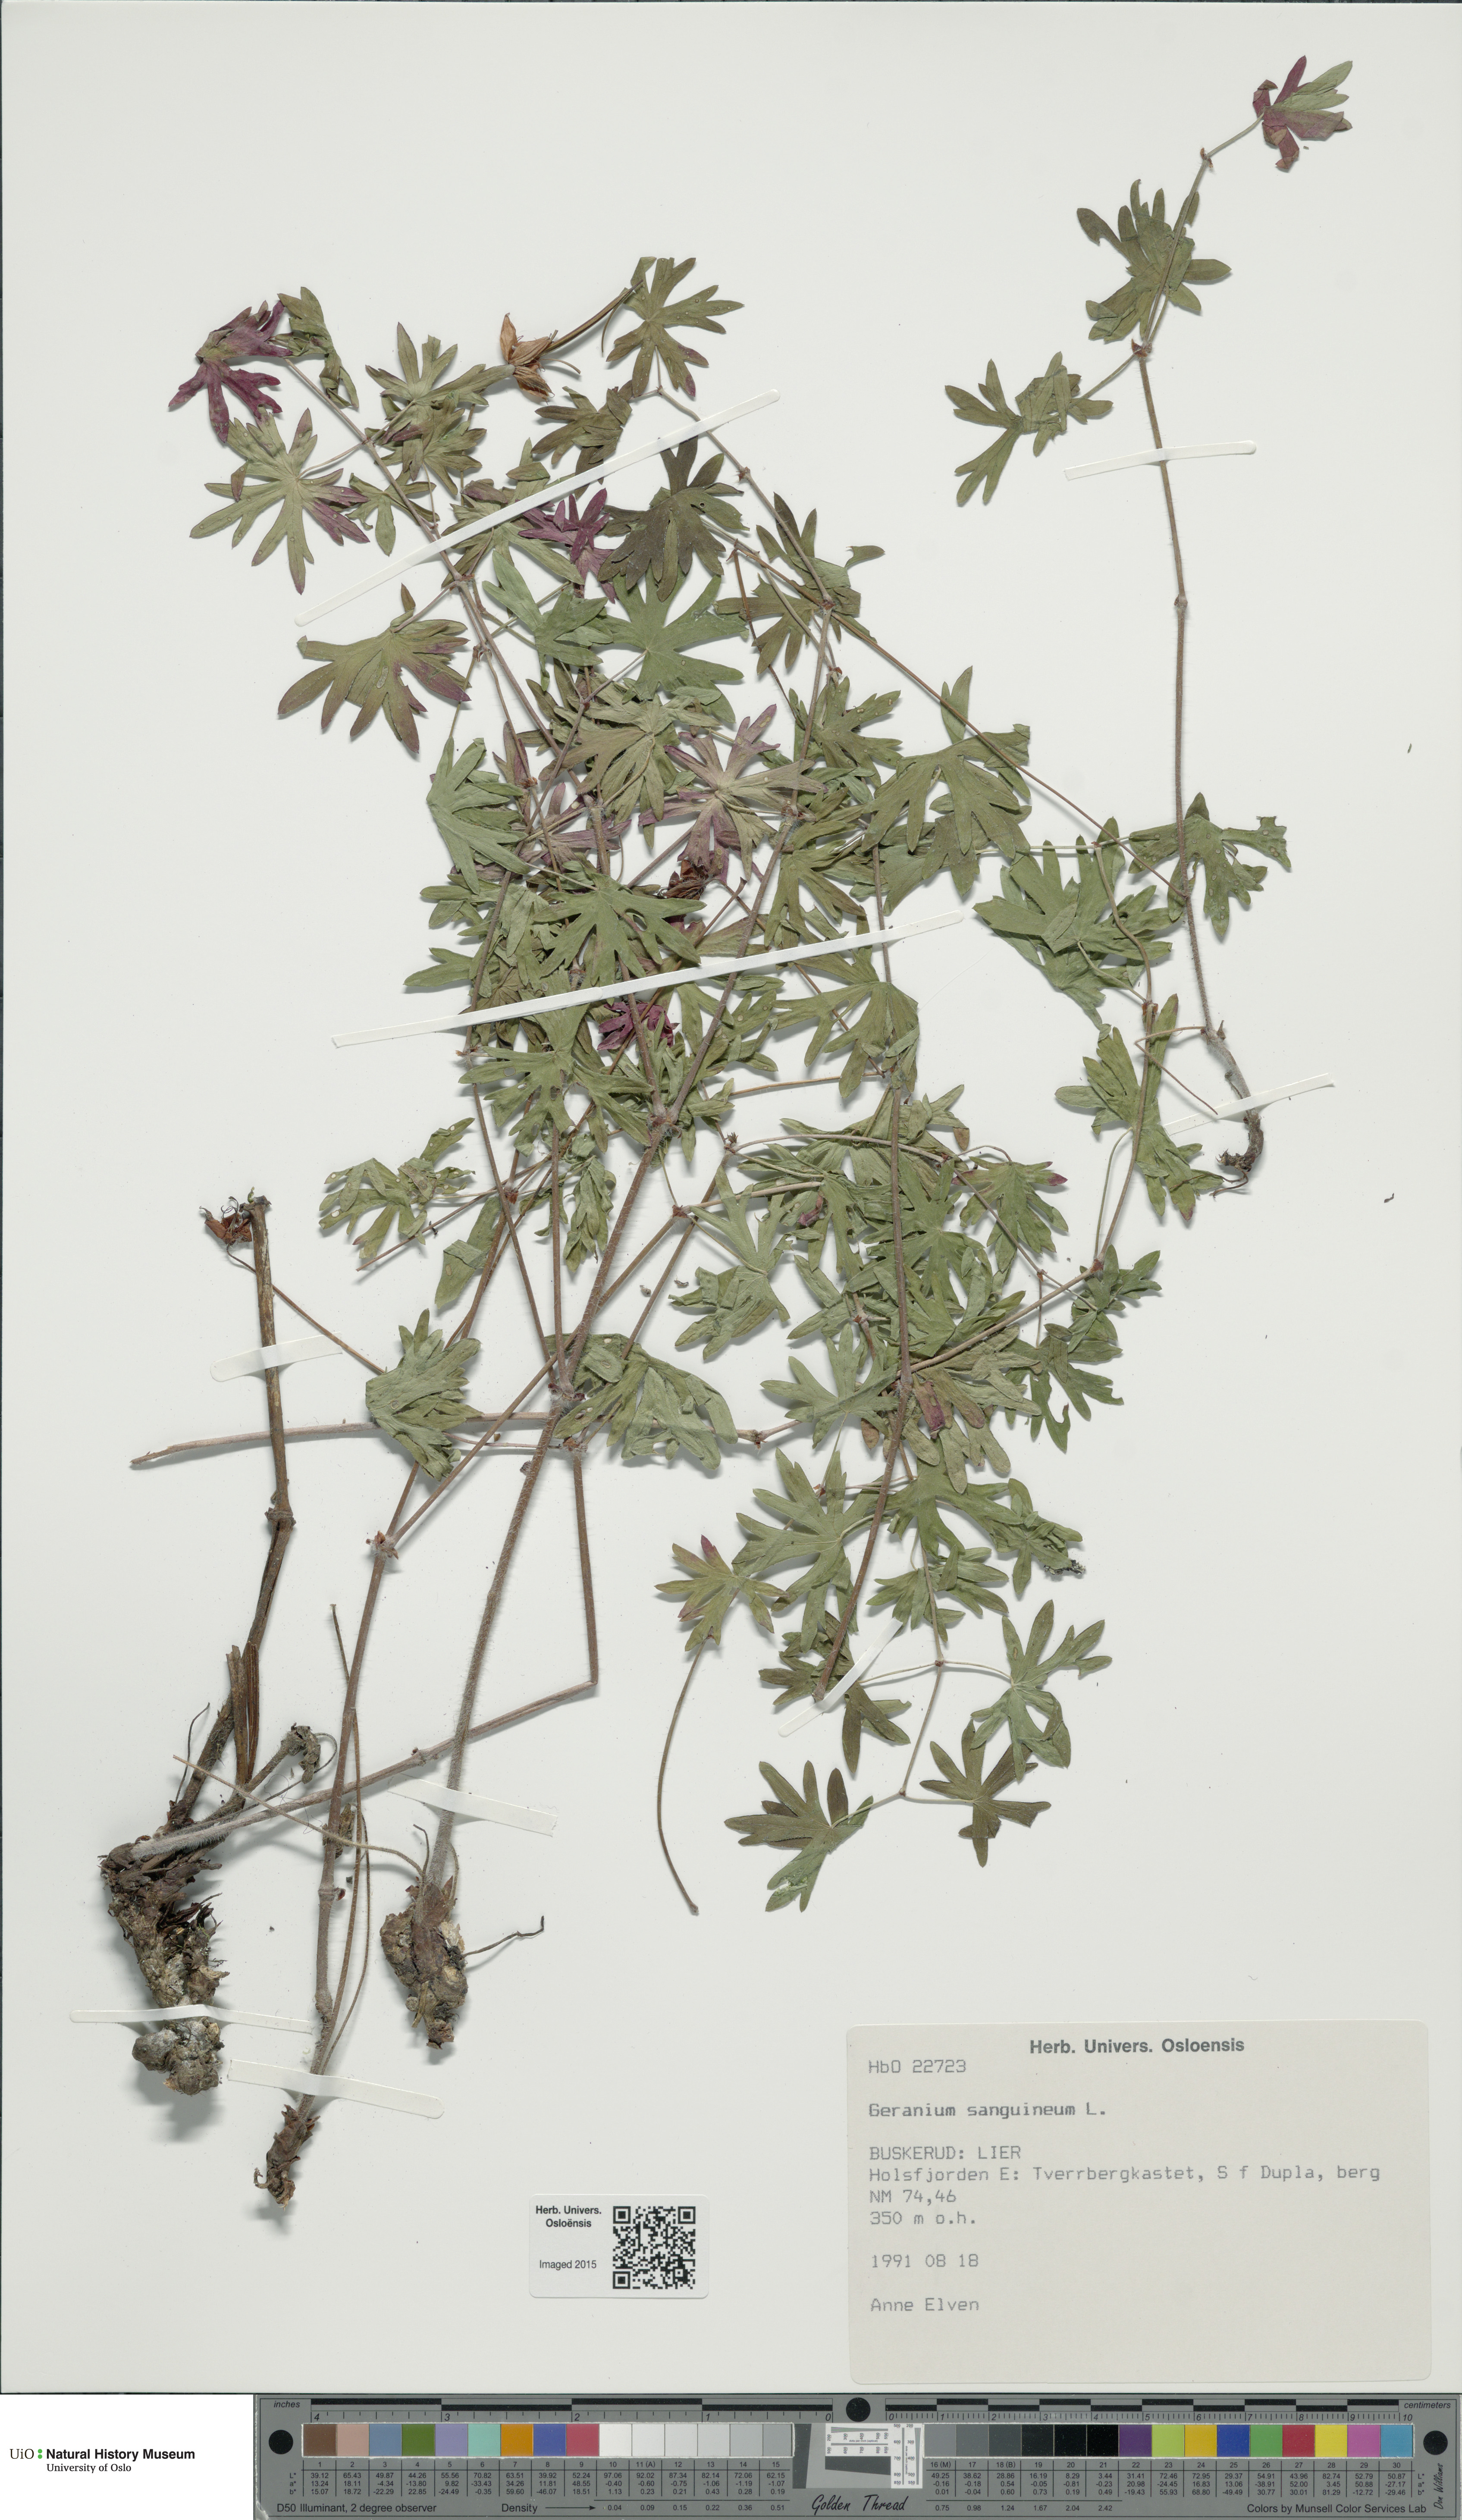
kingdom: Plantae
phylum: Tracheophyta
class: Magnoliopsida
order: Geraniales
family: Geraniaceae
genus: Geranium
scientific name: Geranium sanguineum
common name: Bloody crane's-bill
